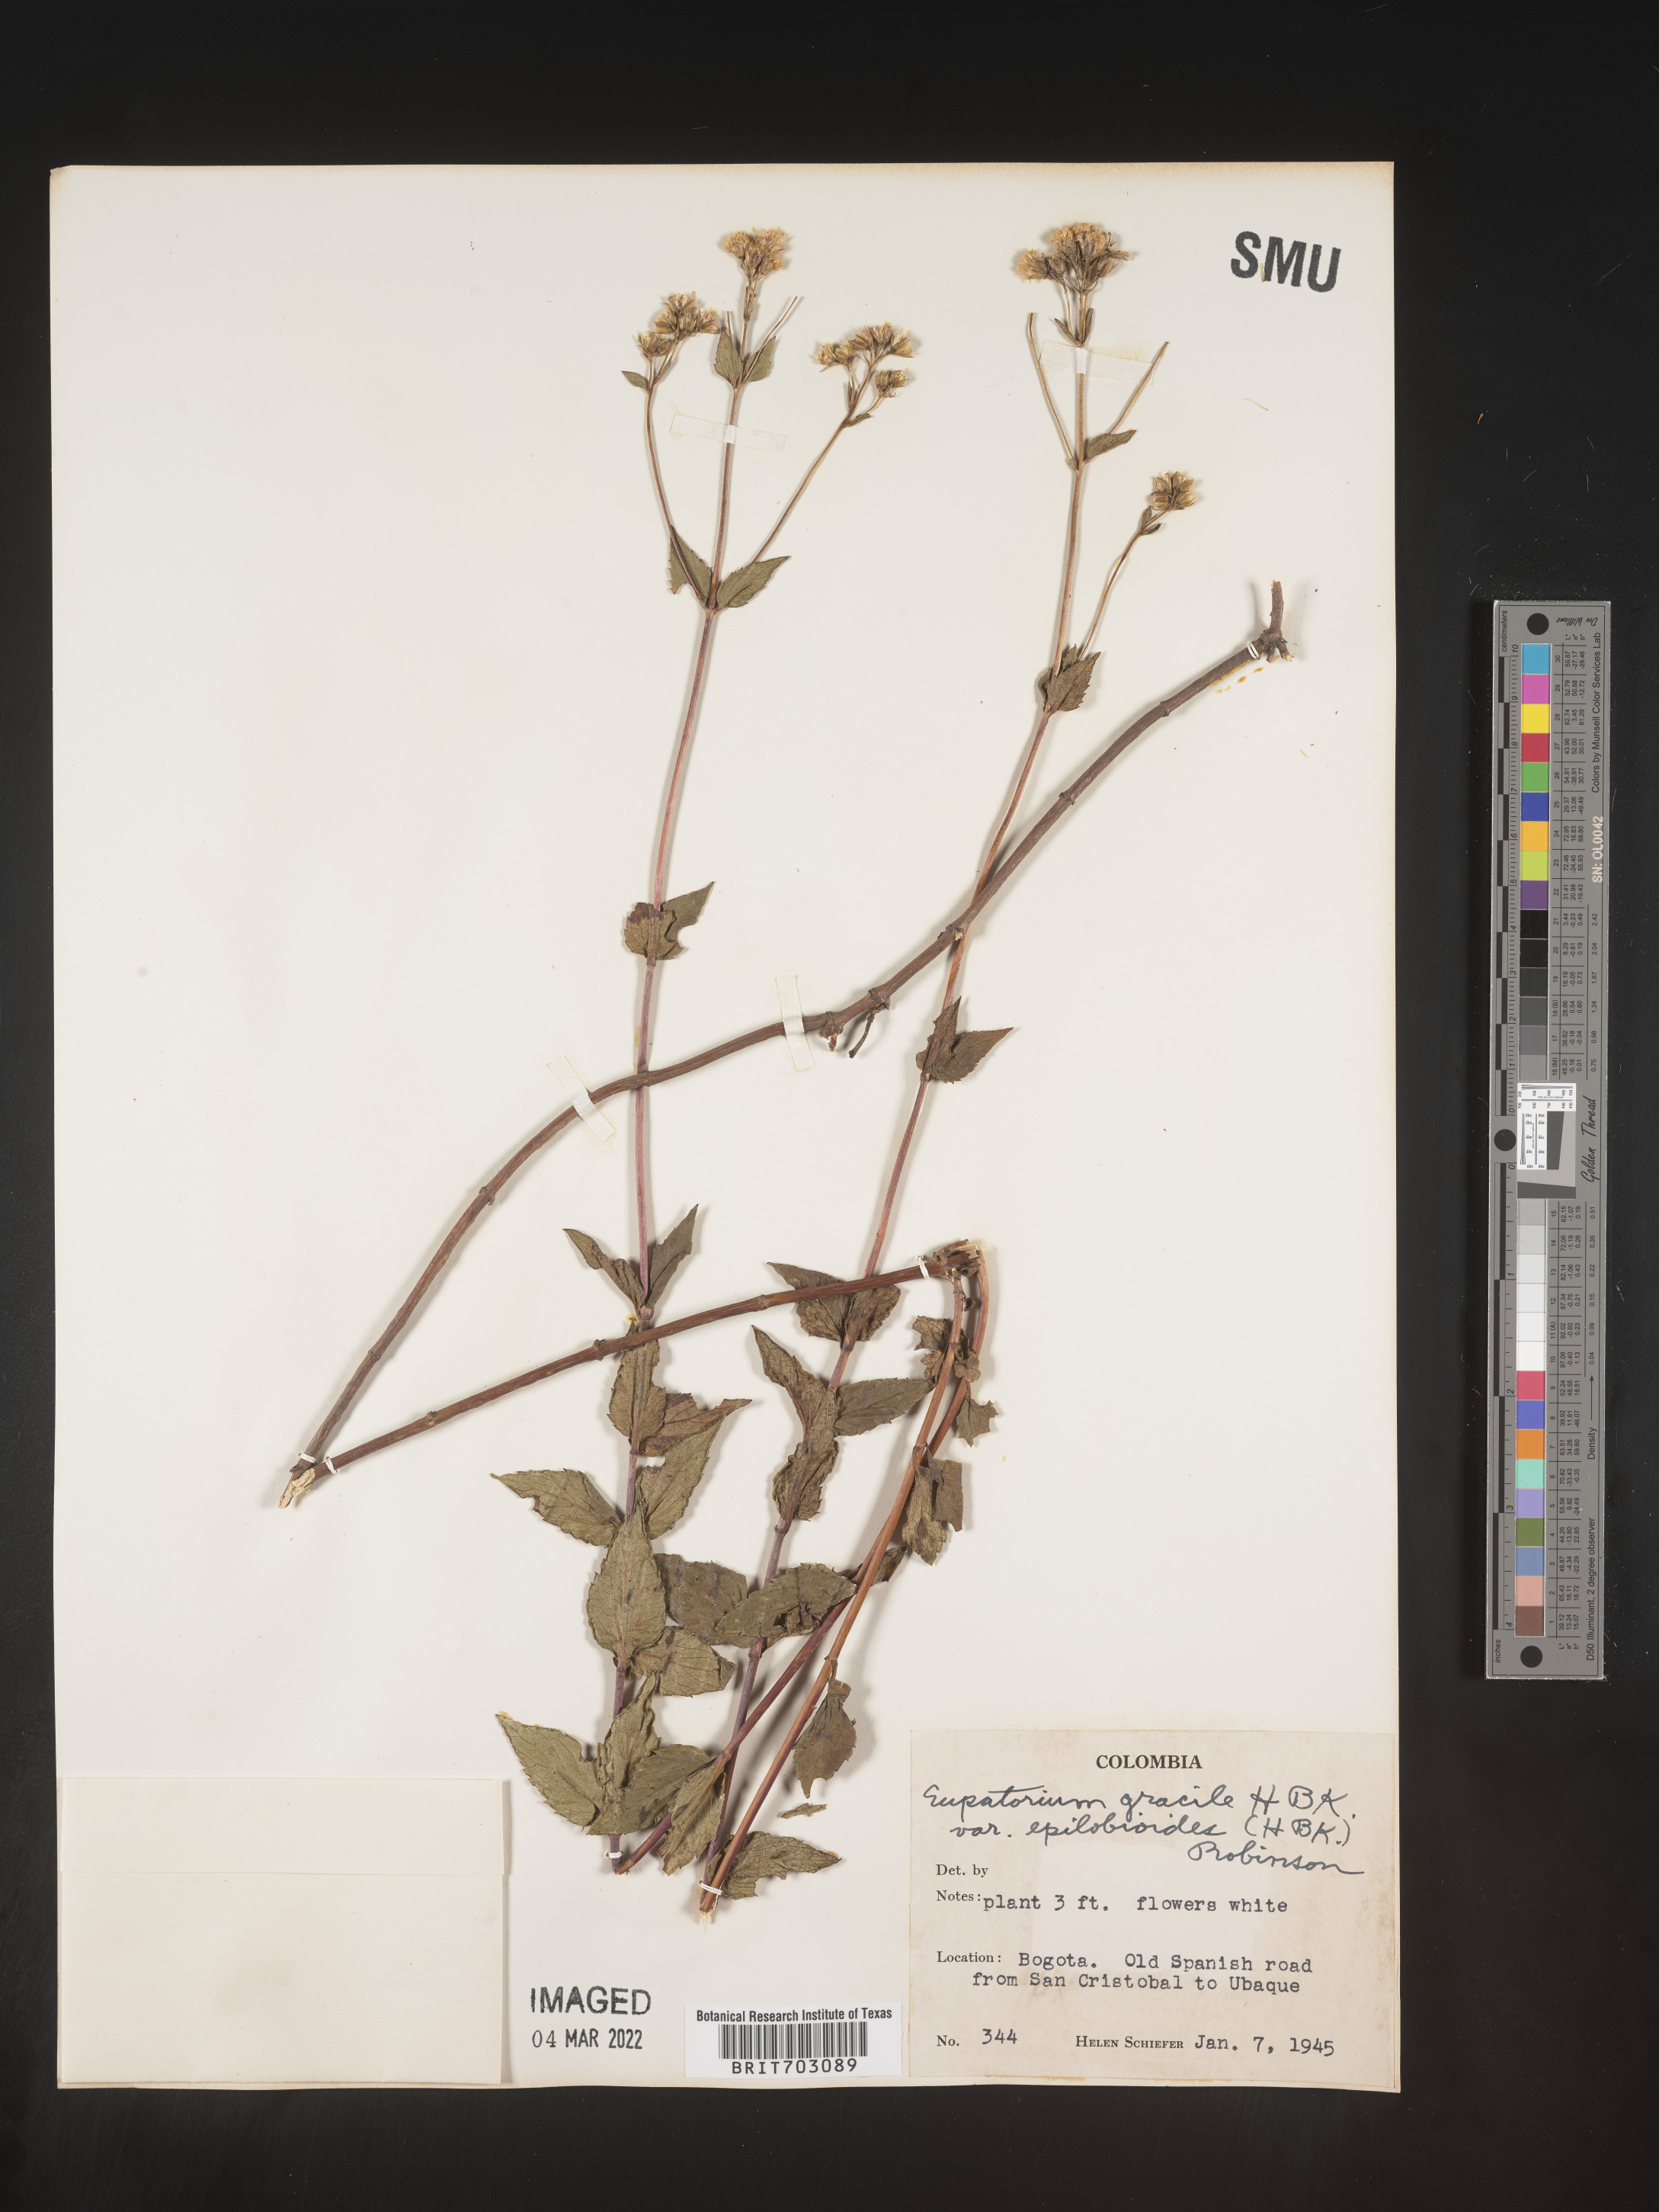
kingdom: Plantae
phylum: Tracheophyta
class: Magnoliopsida
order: Asterales
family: Asteraceae
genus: Eupatorium
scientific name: Eupatorium
